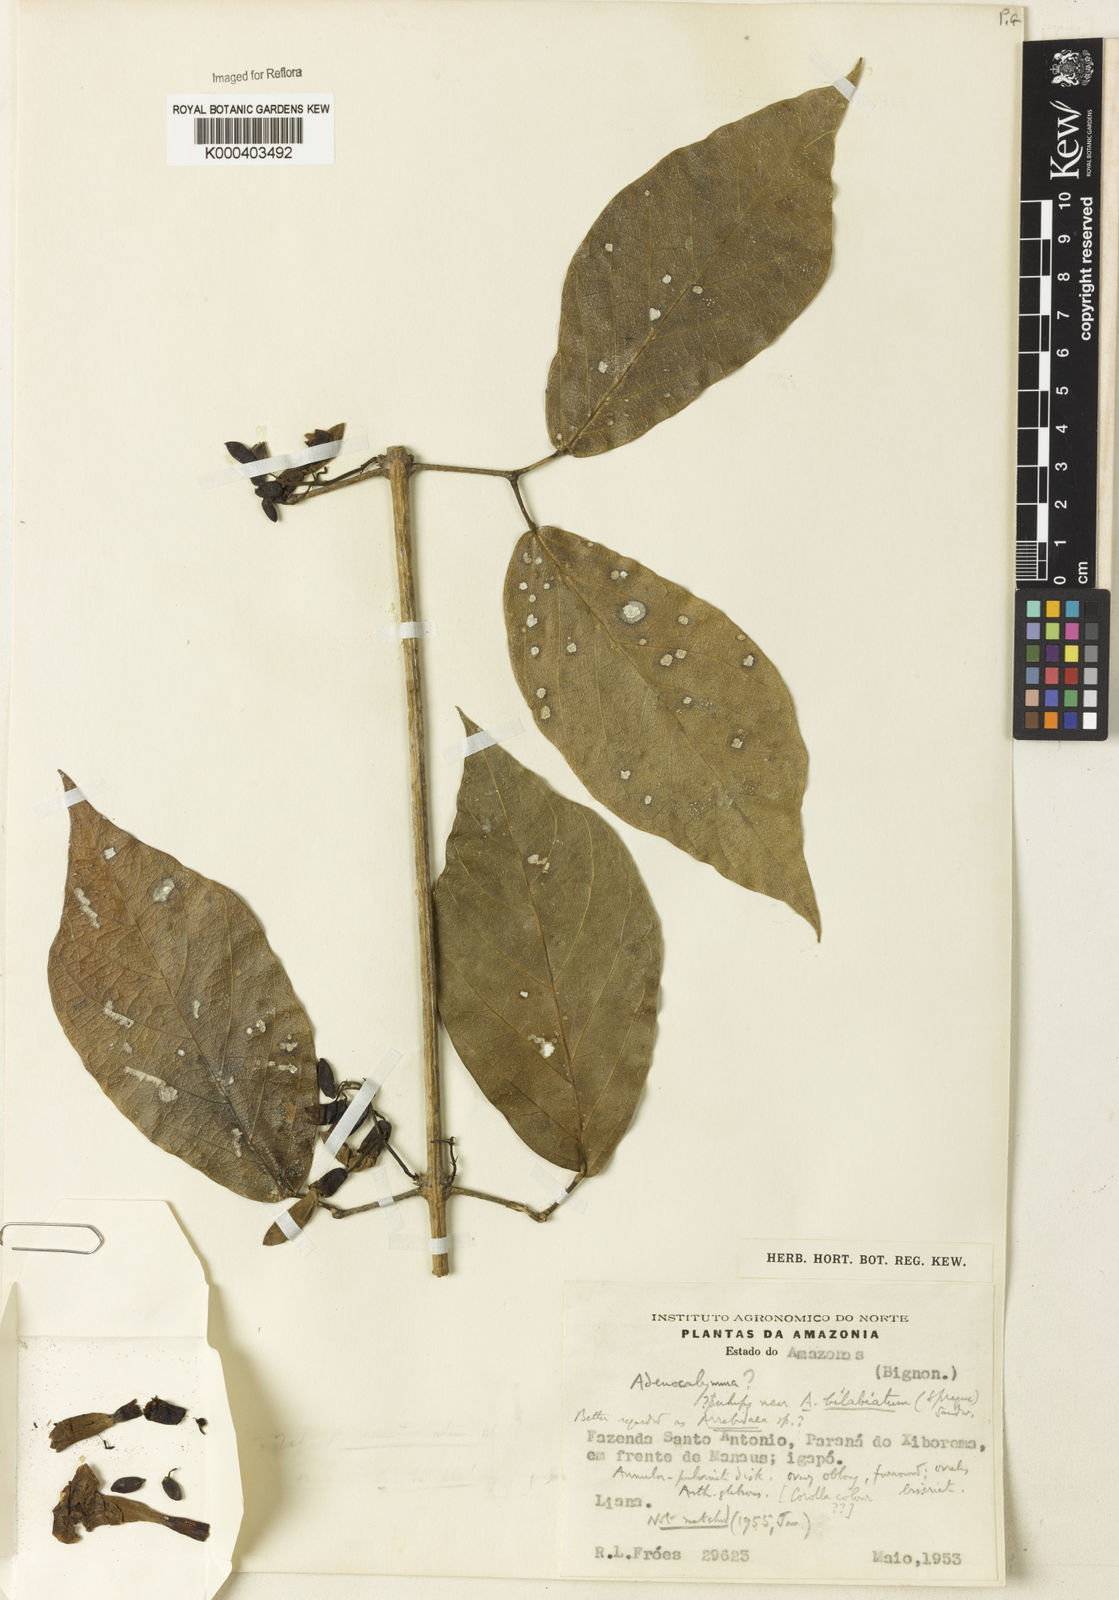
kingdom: Plantae
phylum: Tracheophyta
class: Magnoliopsida
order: Rosales
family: Rhamnaceae
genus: Arrabidaea
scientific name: Arrabidaea
